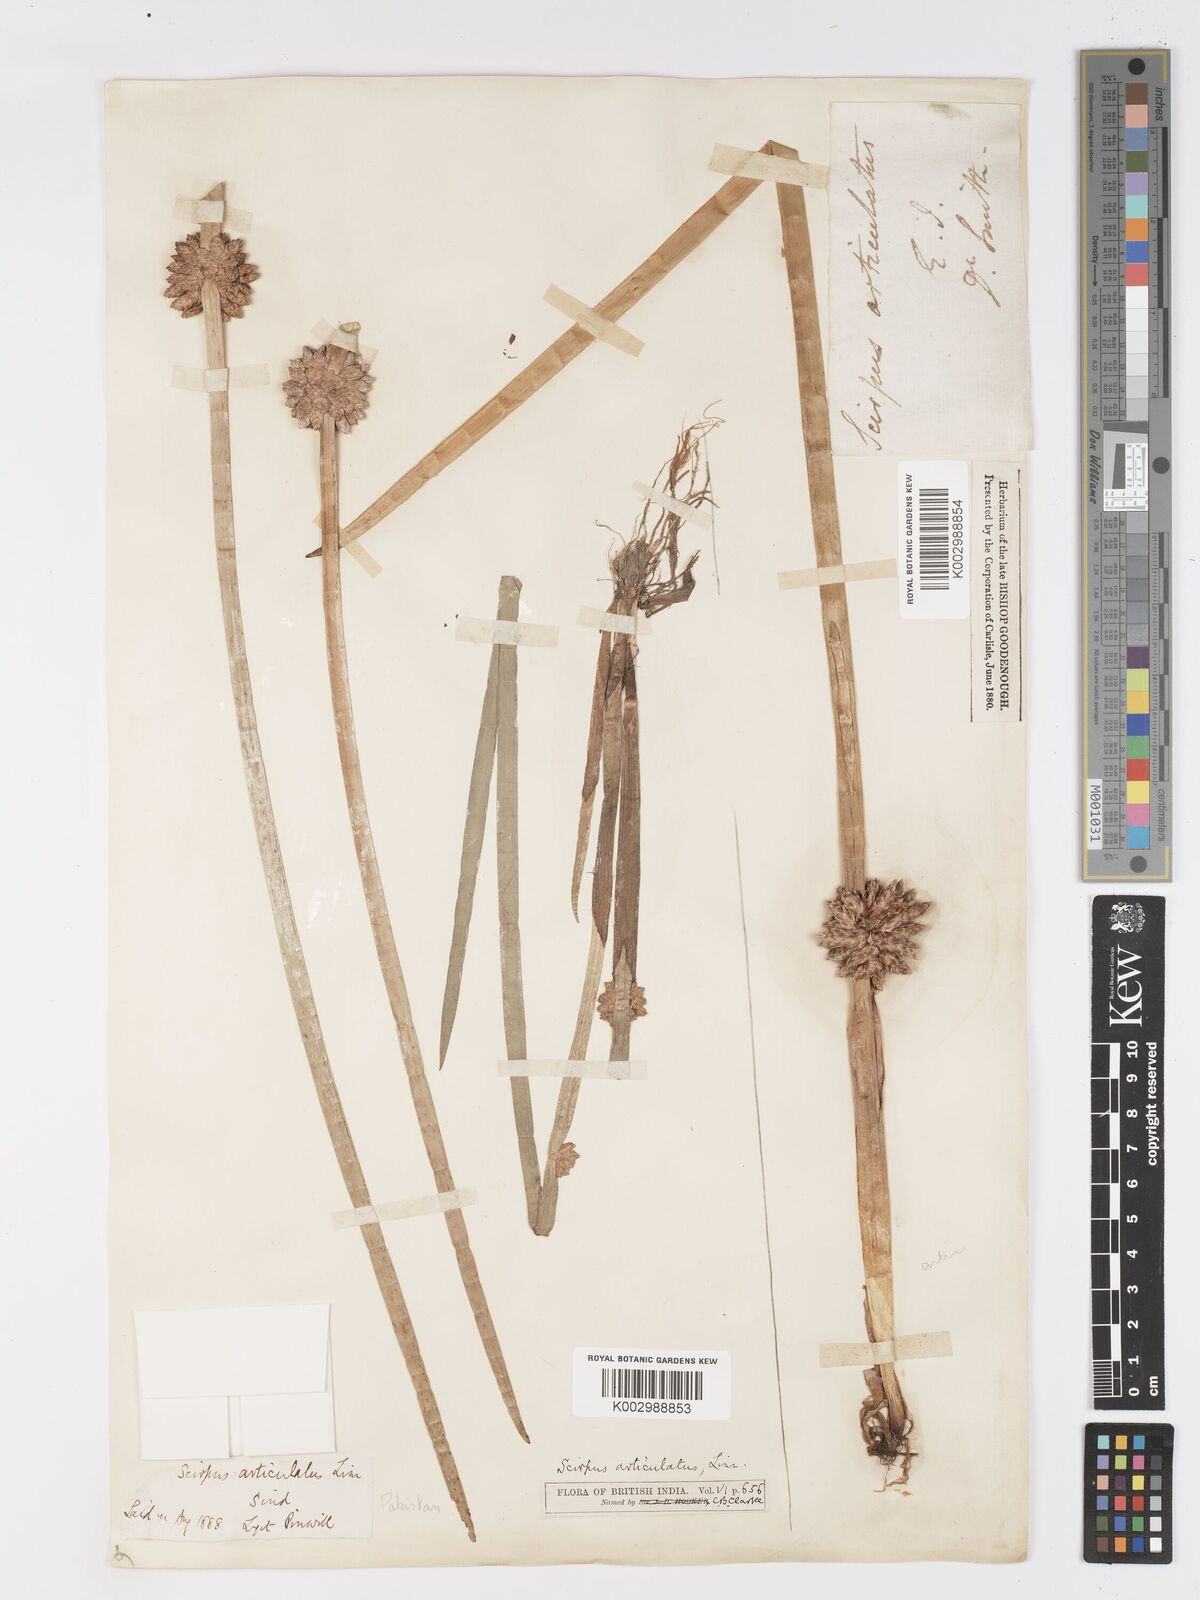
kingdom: Plantae
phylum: Tracheophyta
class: Liliopsida
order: Poales
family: Cyperaceae
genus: Schoenoplectiella
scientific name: Schoenoplectiella praelongata
